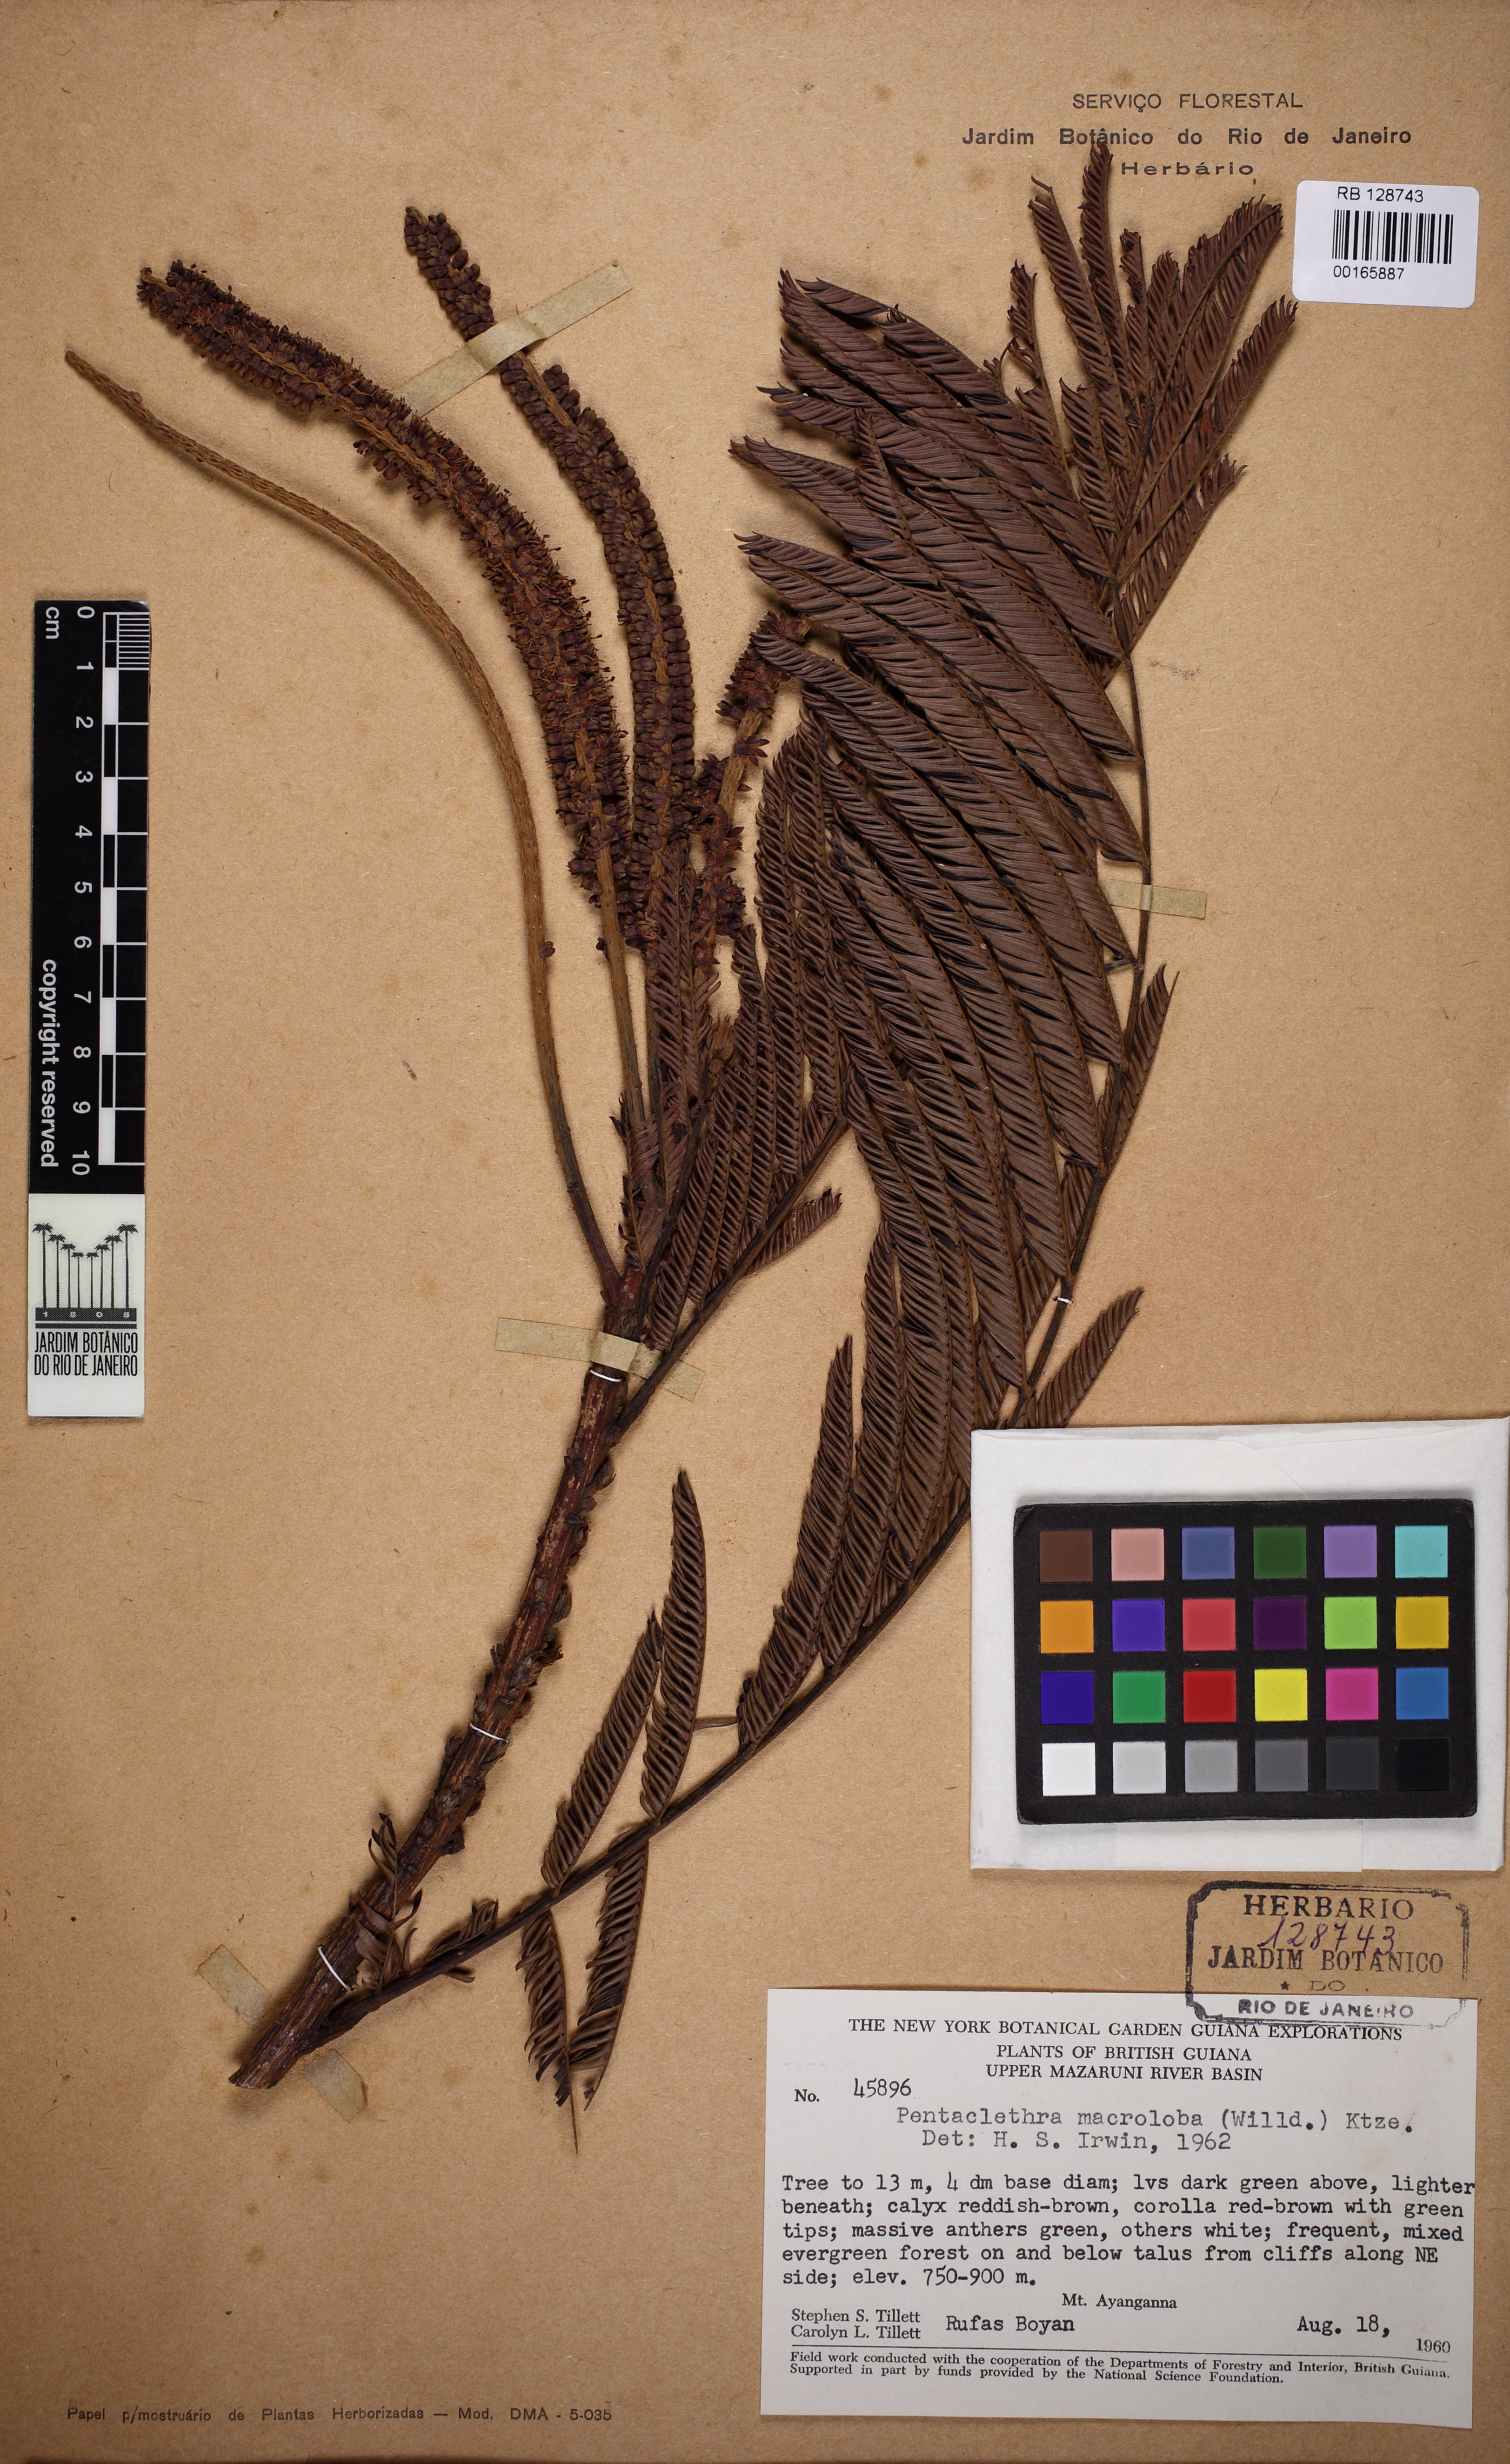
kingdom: Plantae
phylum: Tracheophyta
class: Magnoliopsida
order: Fabales
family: Fabaceae
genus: Pentaclethra
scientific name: Pentaclethra macroloba
